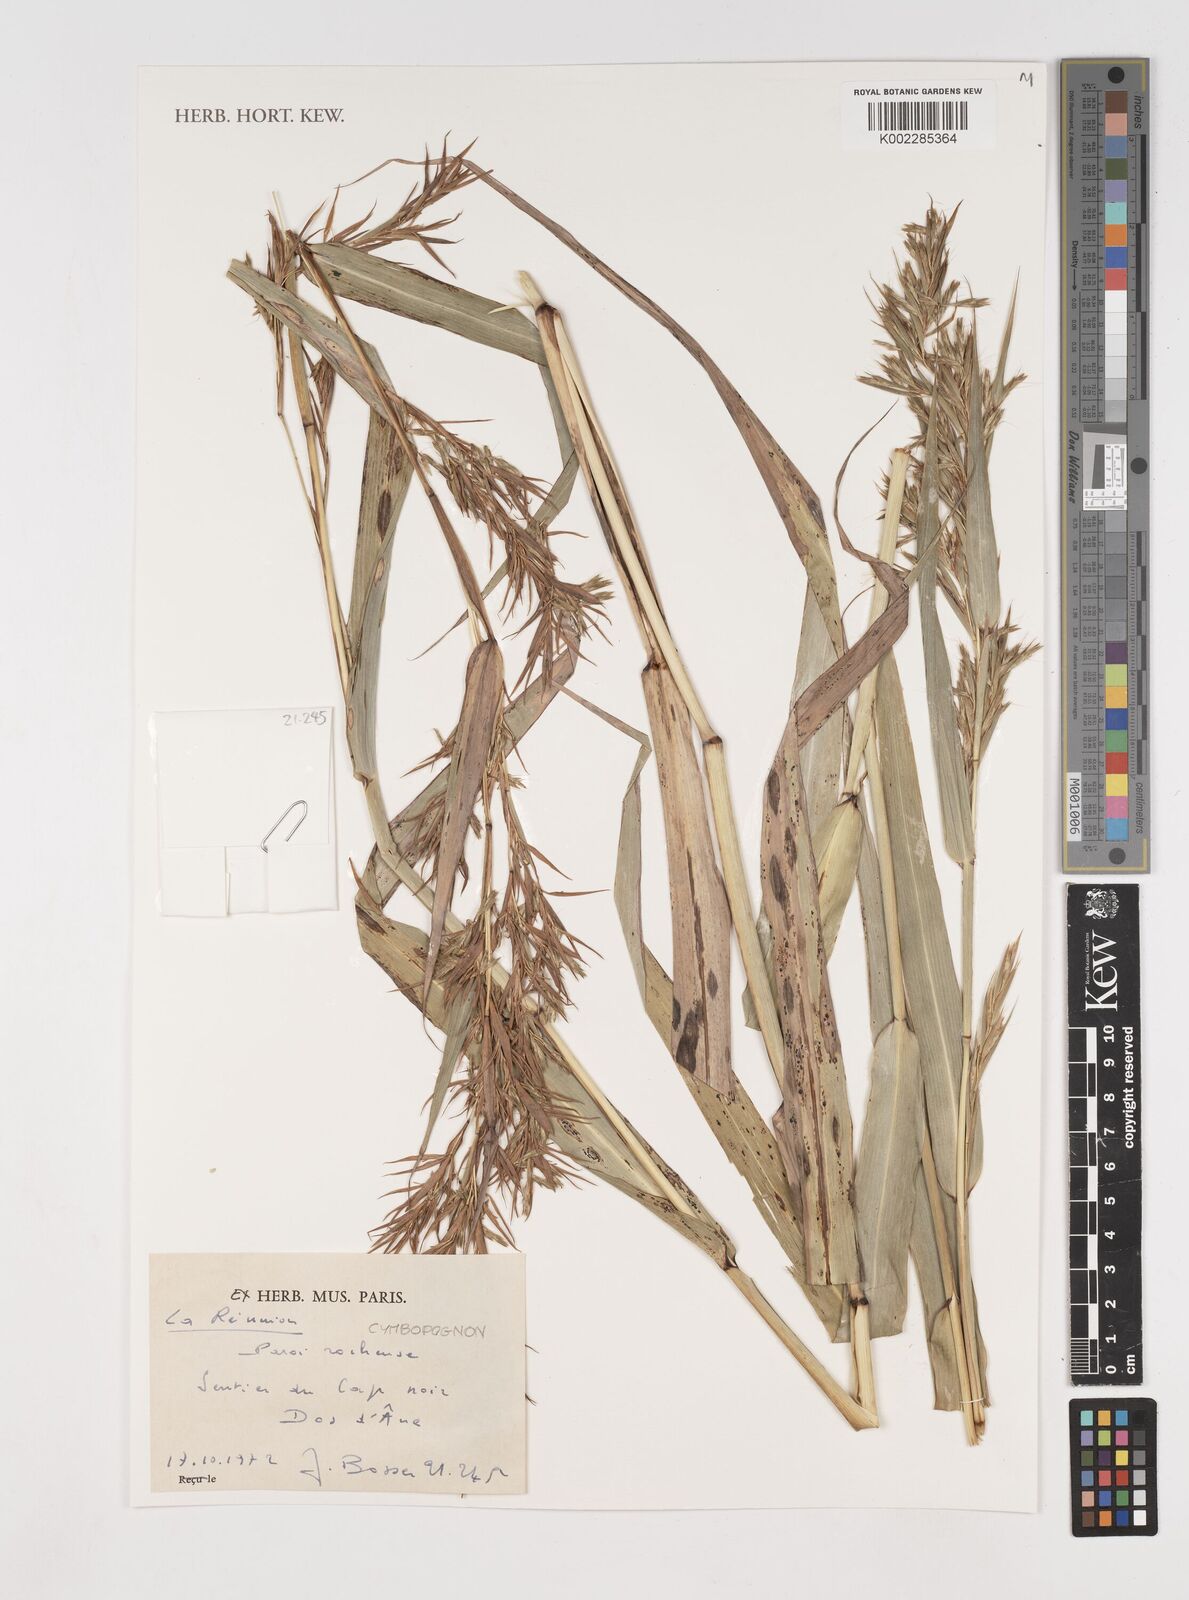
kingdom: Plantae
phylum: Tracheophyta
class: Liliopsida
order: Poales
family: Poaceae
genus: Cymbopogon
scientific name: Cymbopogon
